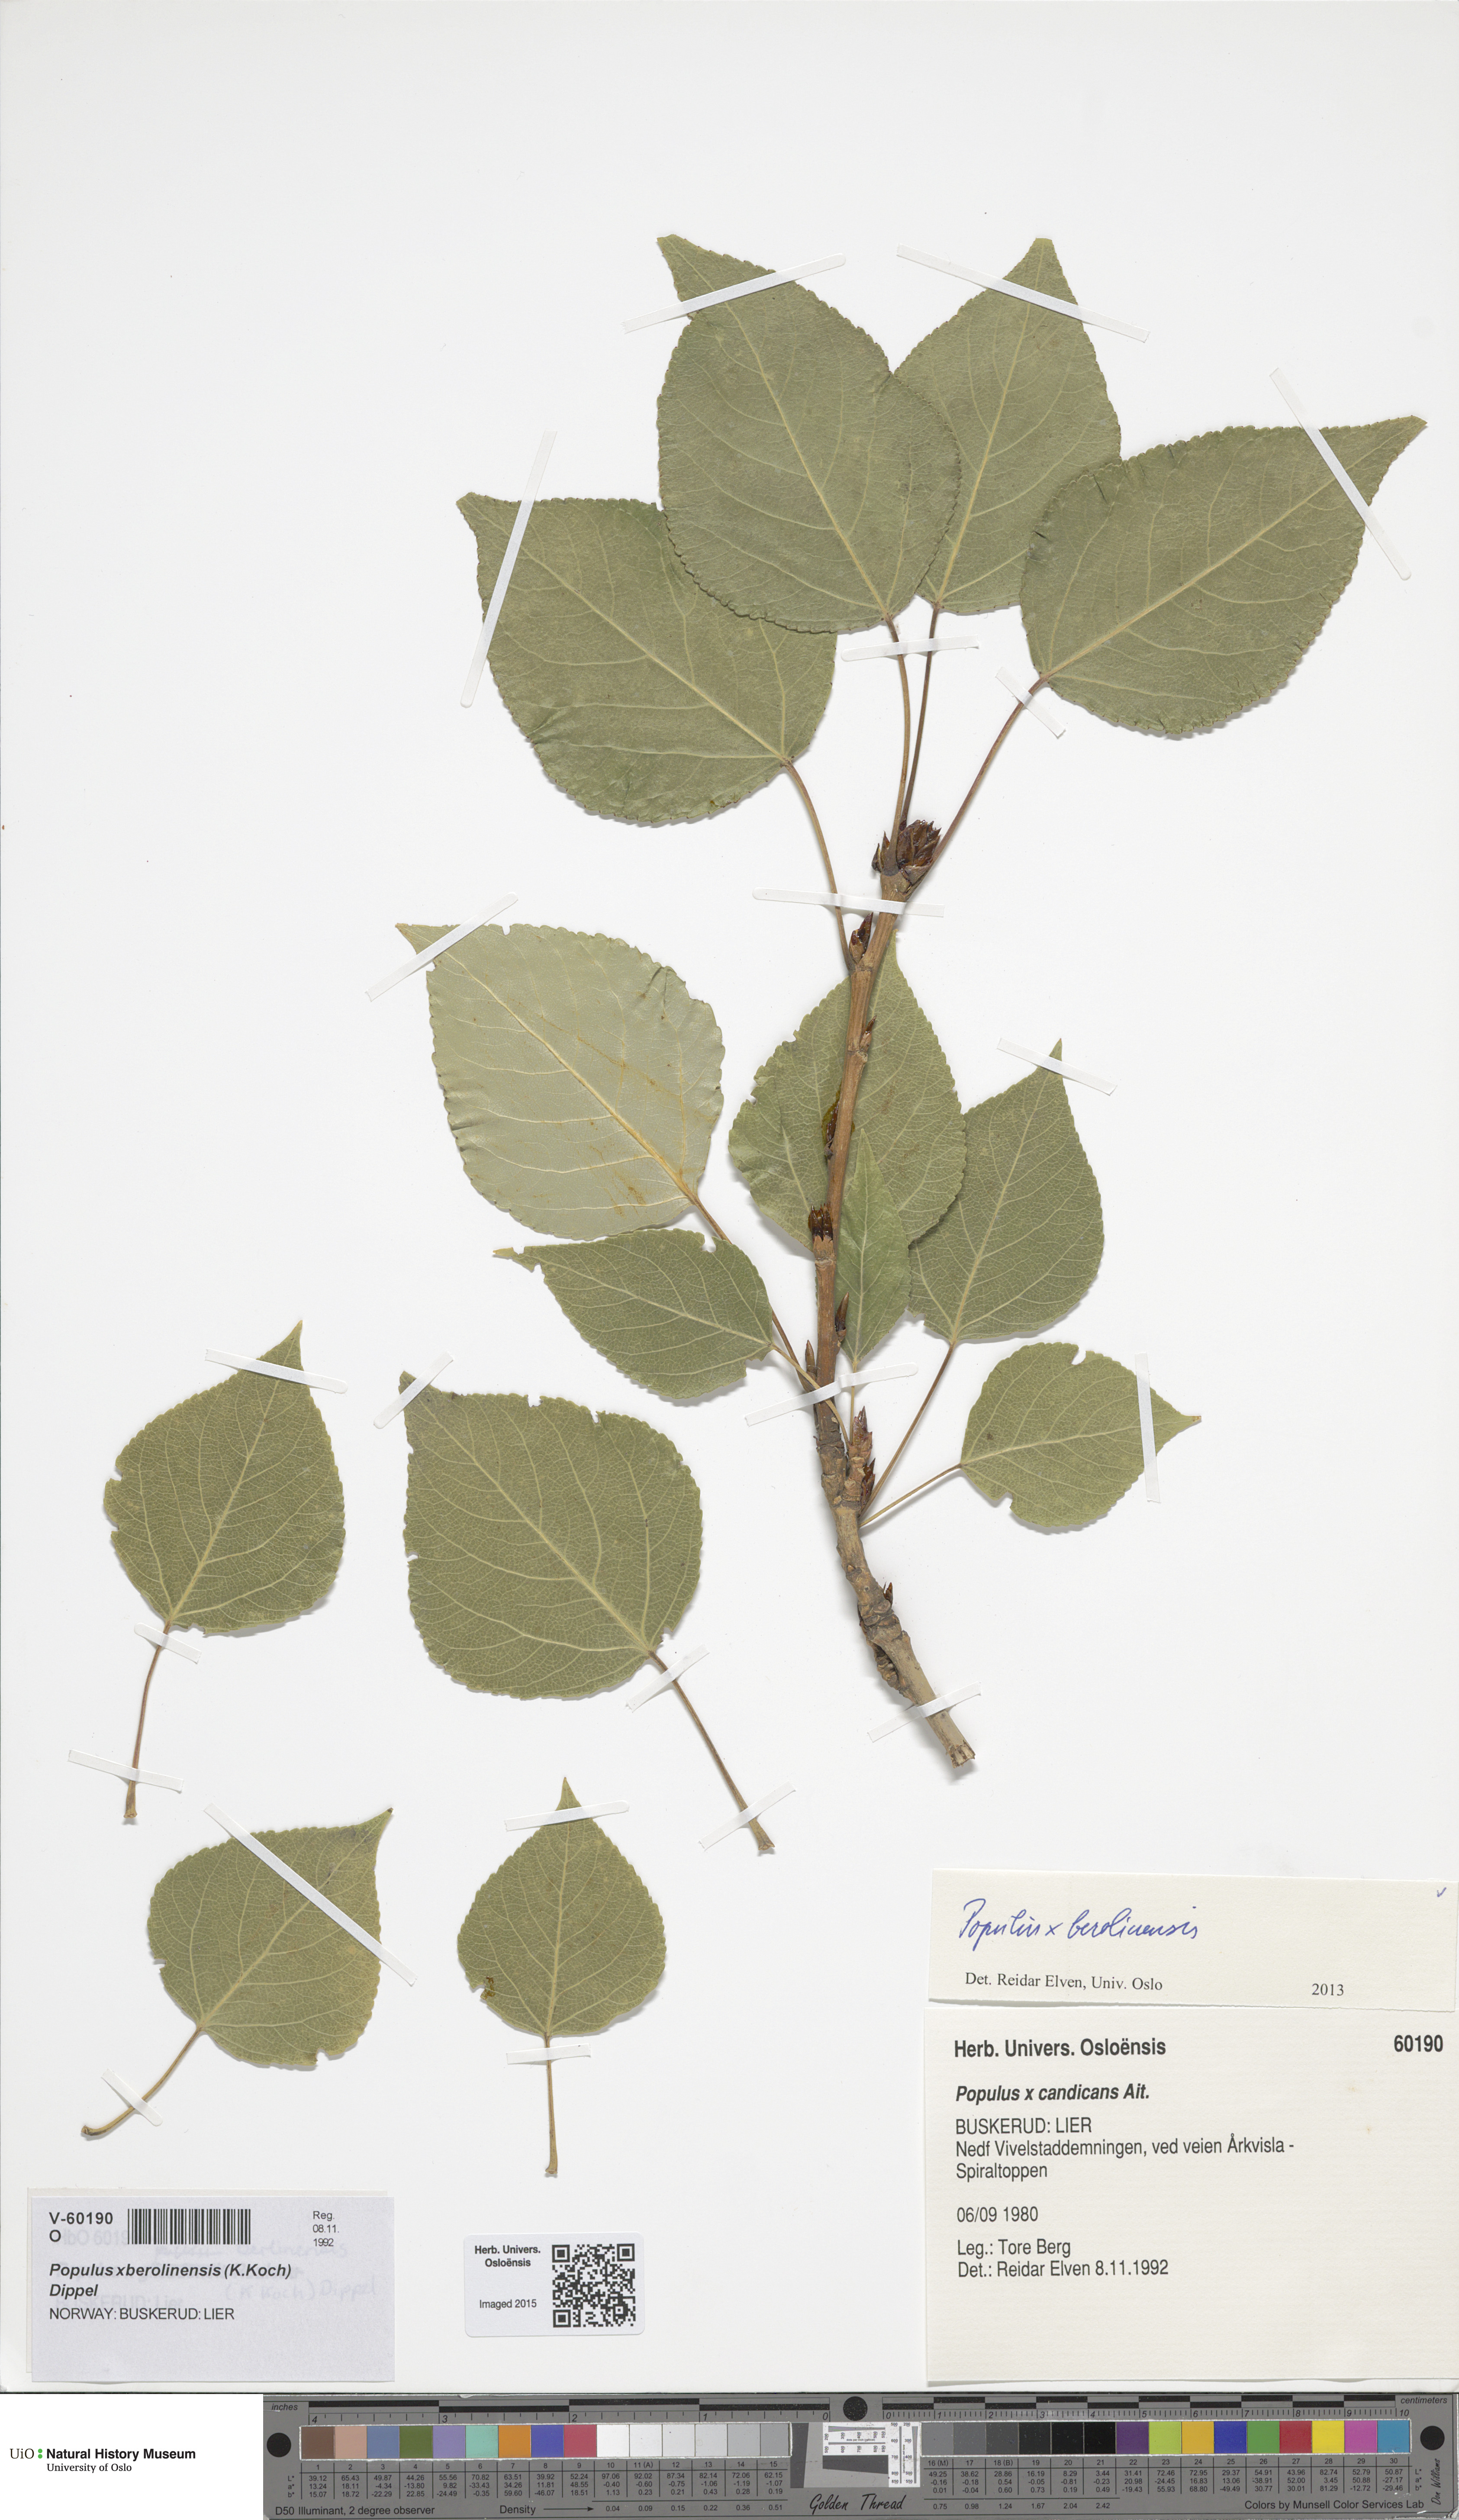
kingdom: Plantae
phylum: Tracheophyta
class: Magnoliopsida
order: Malpighiales
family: Salicaceae
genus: Populus
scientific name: Populus berolinensis
